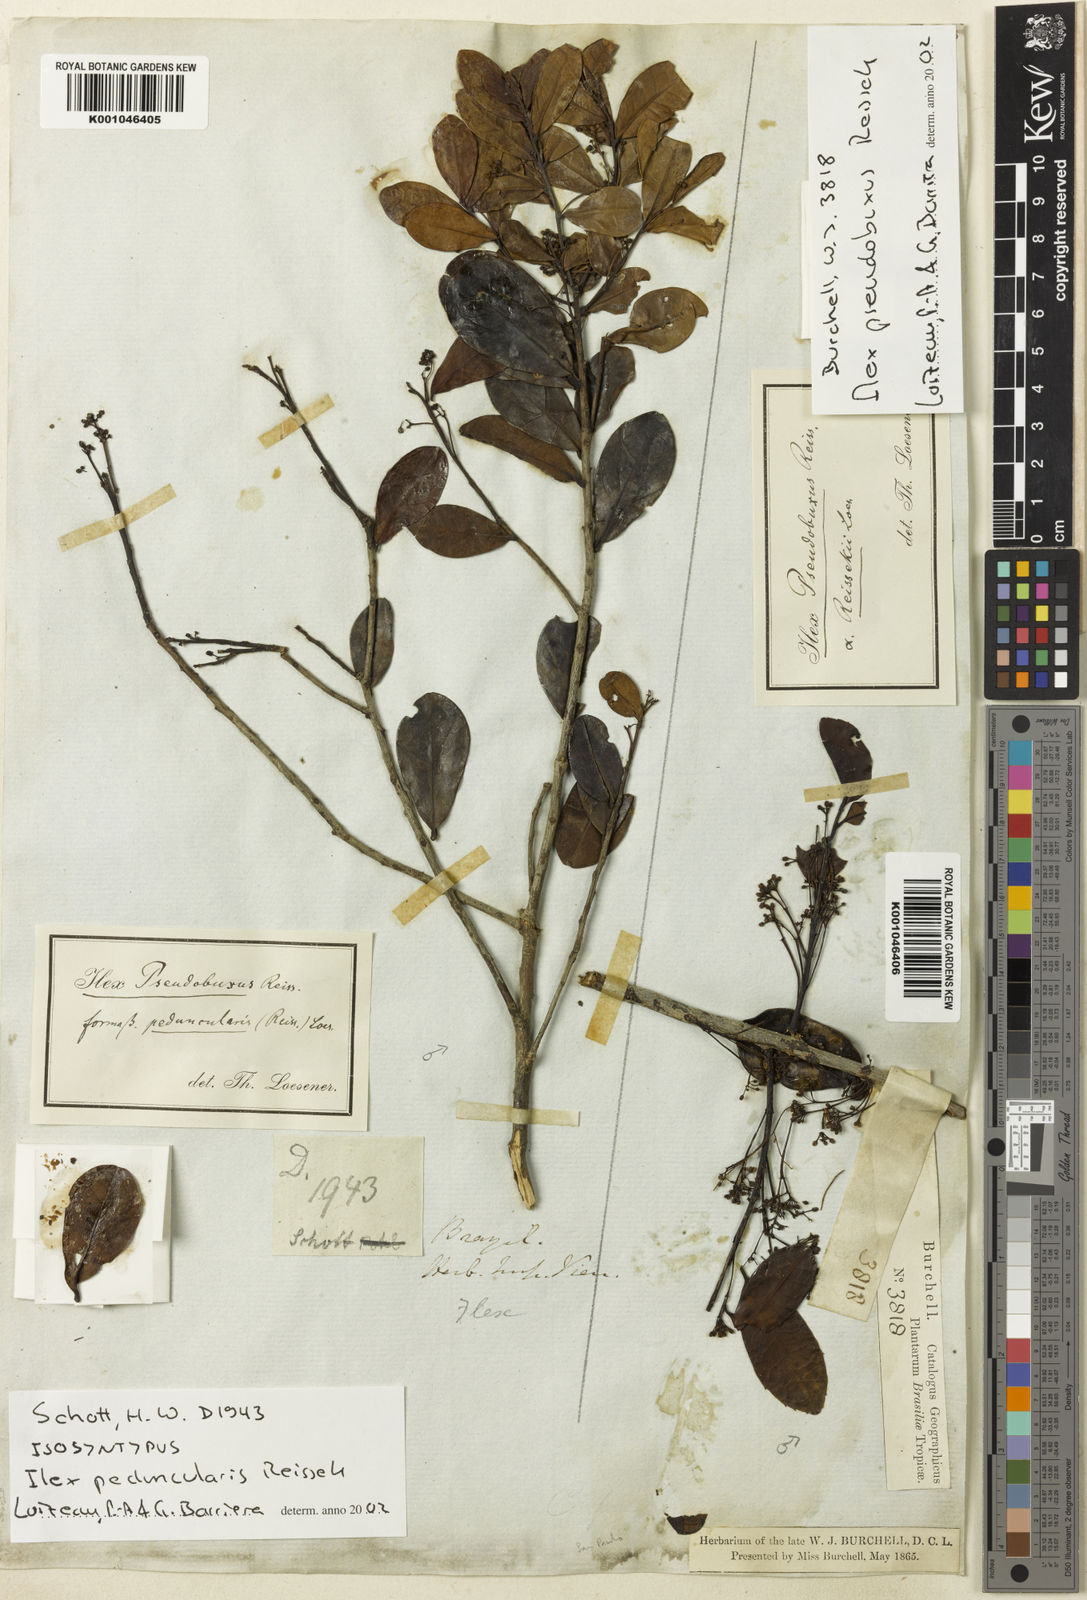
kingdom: Plantae
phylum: Tracheophyta
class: Magnoliopsida
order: Aquifoliales
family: Aquifoliaceae
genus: Ilex
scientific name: Ilex pseudobuxus
